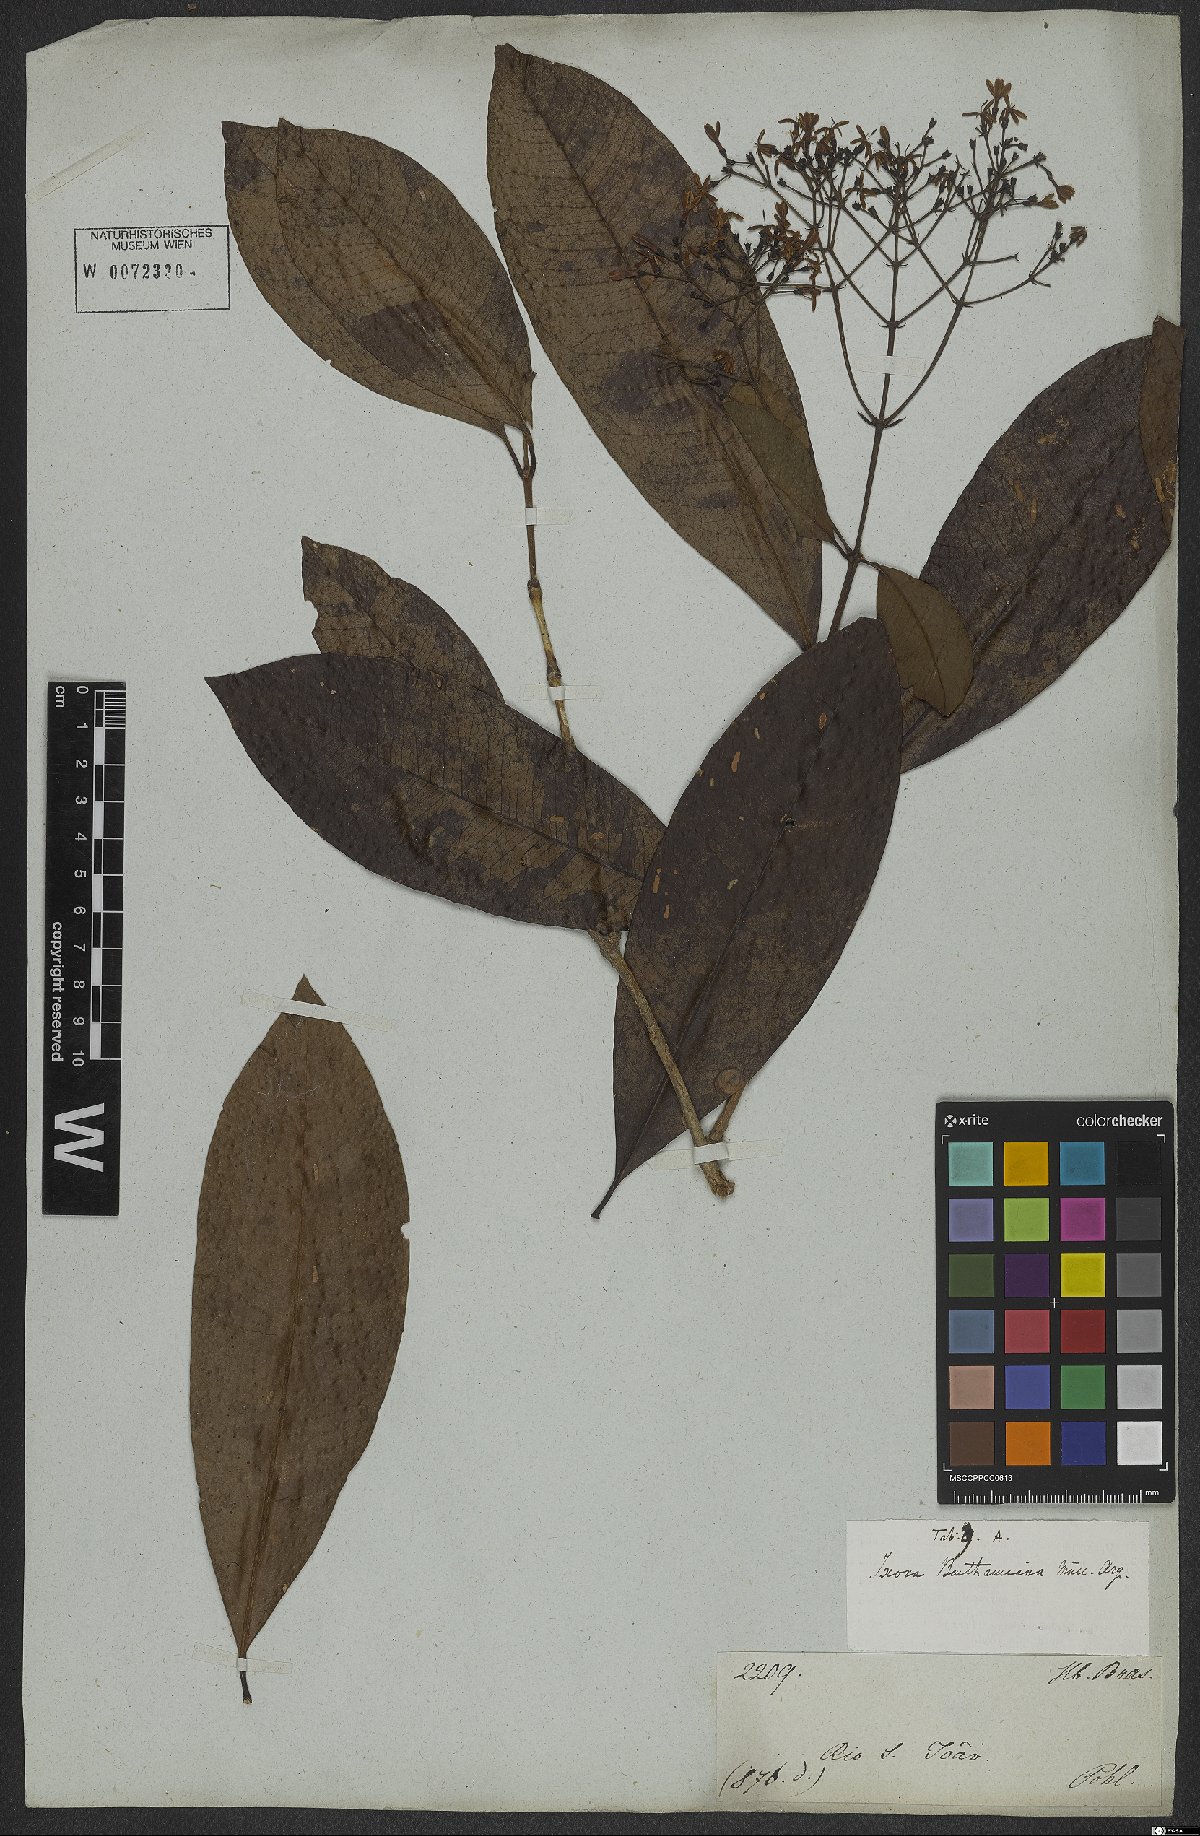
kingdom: Plantae
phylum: Tracheophyta
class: Magnoliopsida
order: Gentianales
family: Rubiaceae
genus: Ixora
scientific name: Ixora syringiflora
